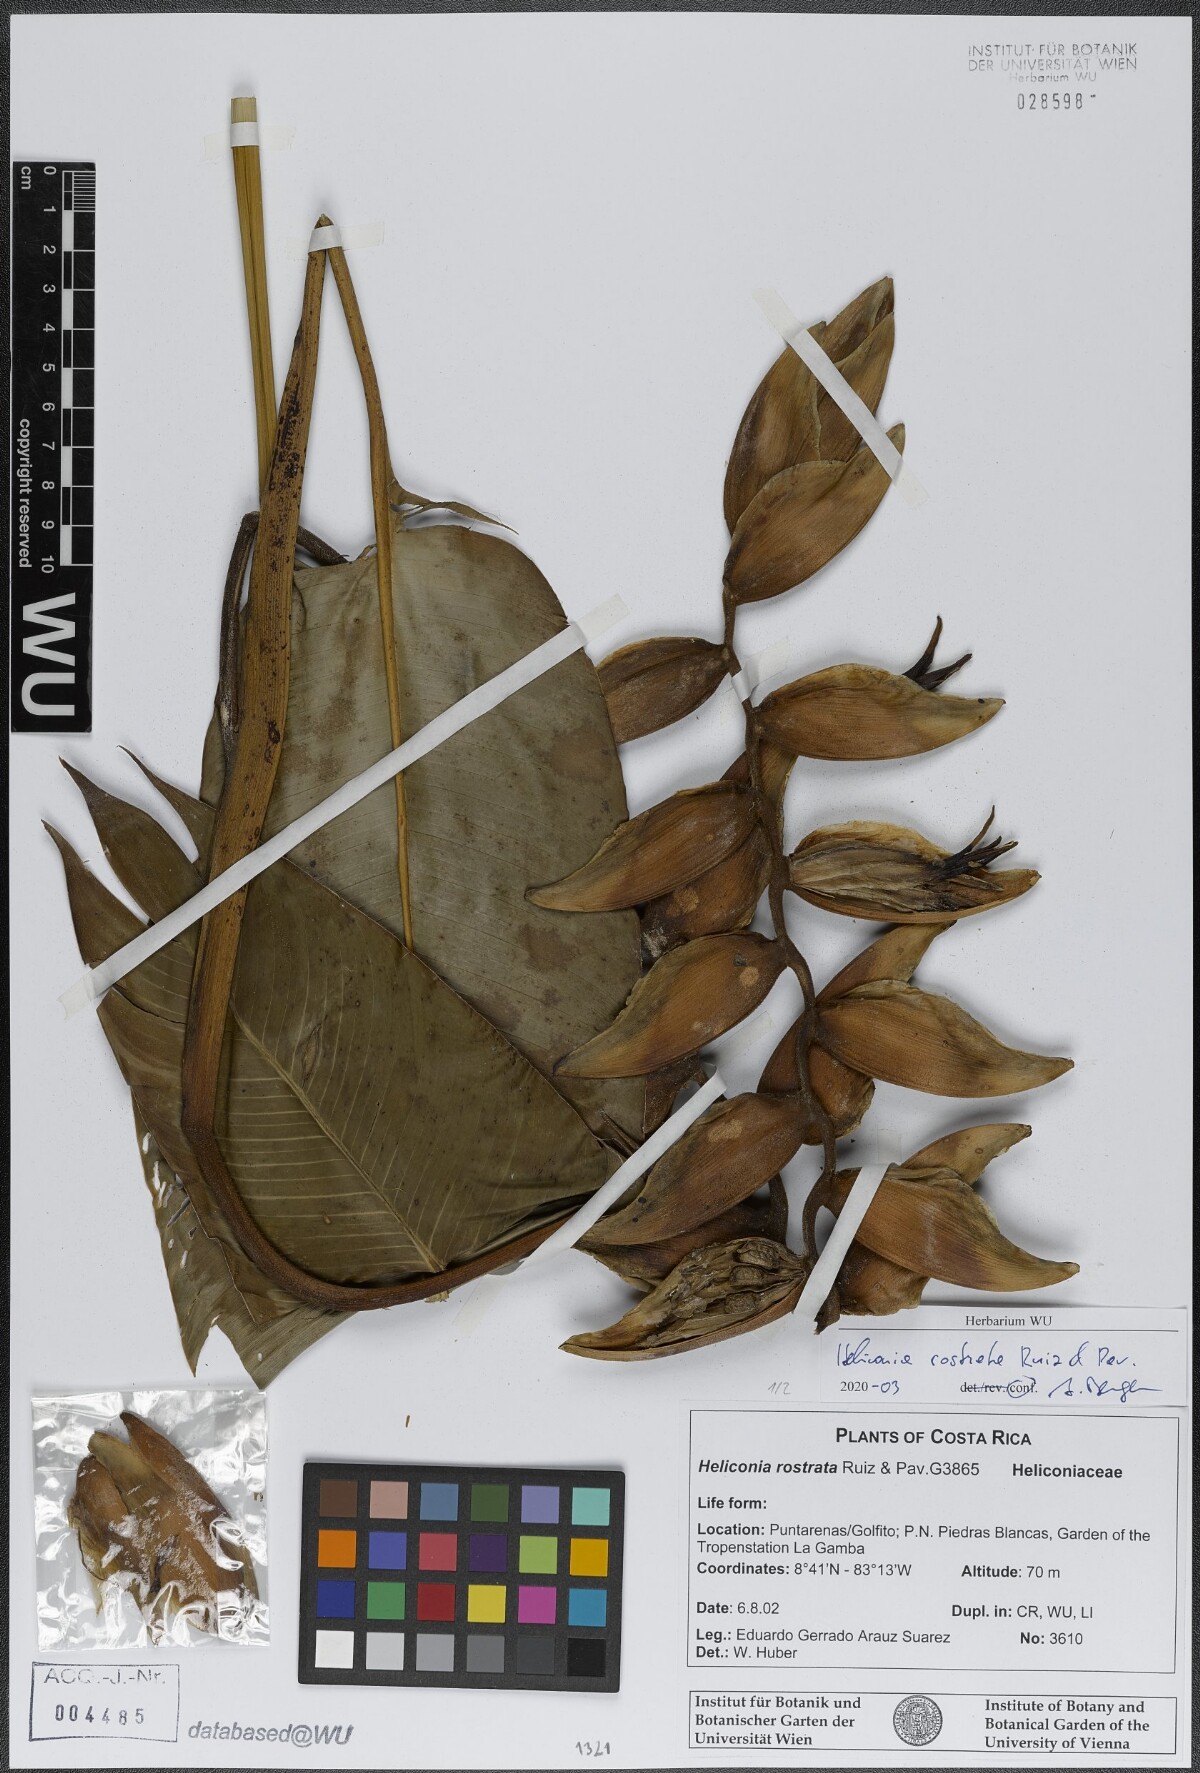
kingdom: Plantae
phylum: Tracheophyta
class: Liliopsida
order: Zingiberales
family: Heliconiaceae
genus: Heliconia
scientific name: Heliconia rostrata
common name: False bird of paradise
